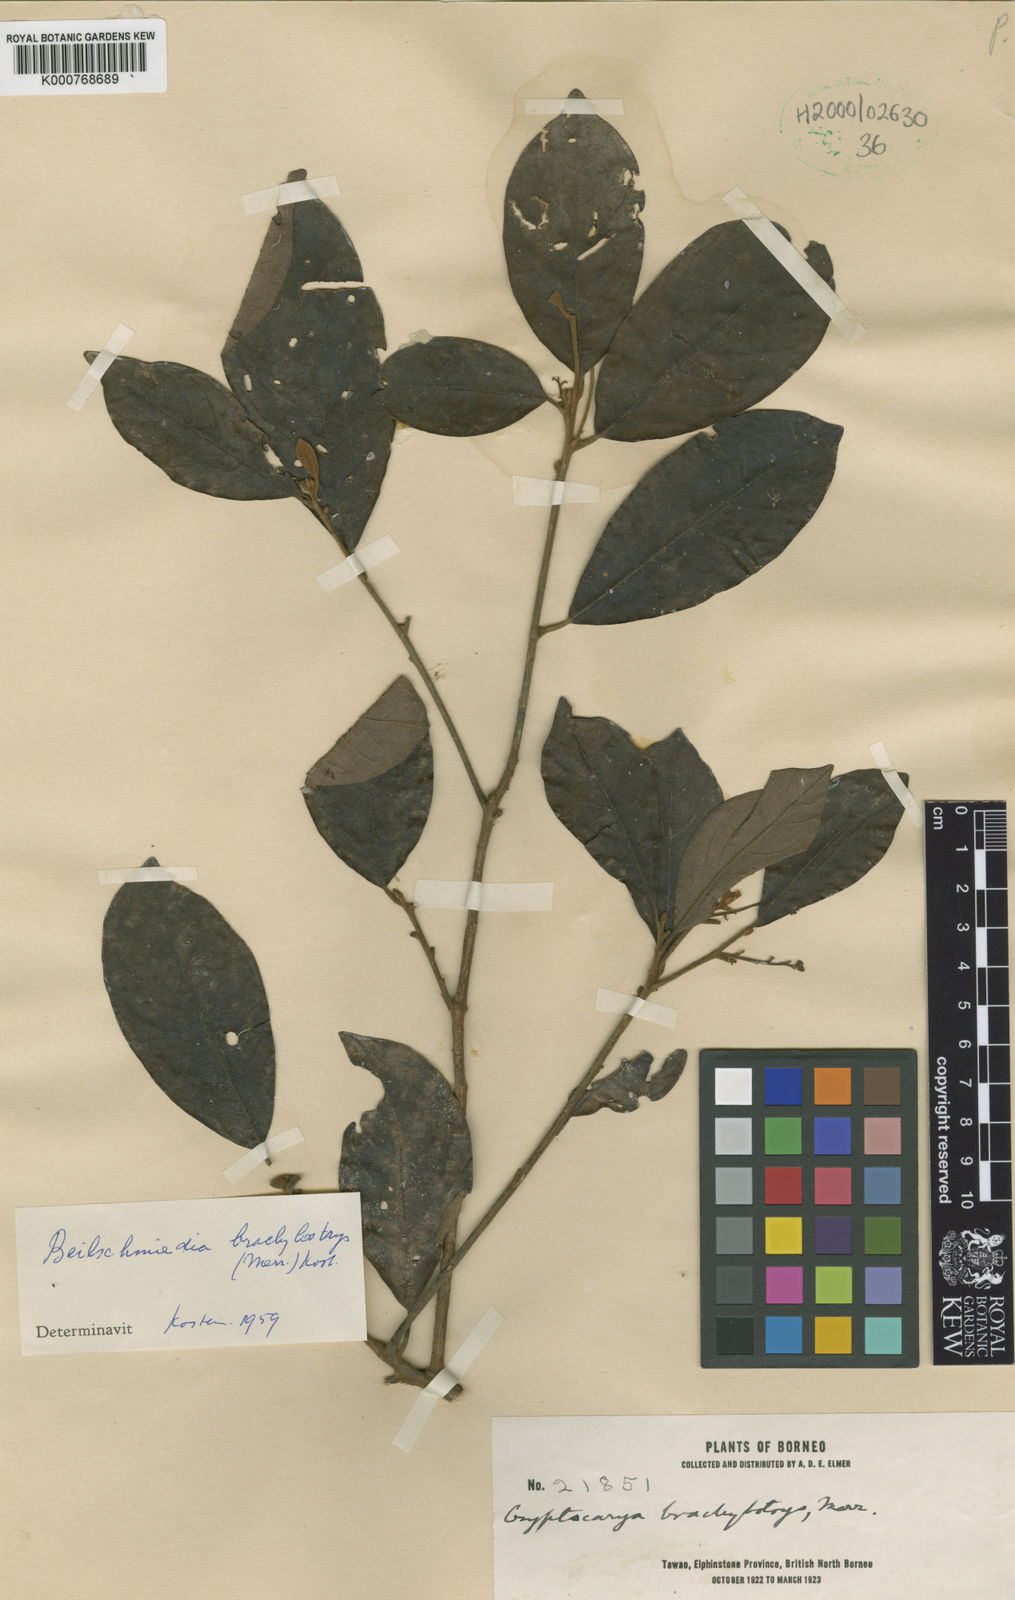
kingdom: Plantae
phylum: Tracheophyta
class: Magnoliopsida
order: Laurales
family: Lauraceae
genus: Beilschmiedia
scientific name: Beilschmiedia
